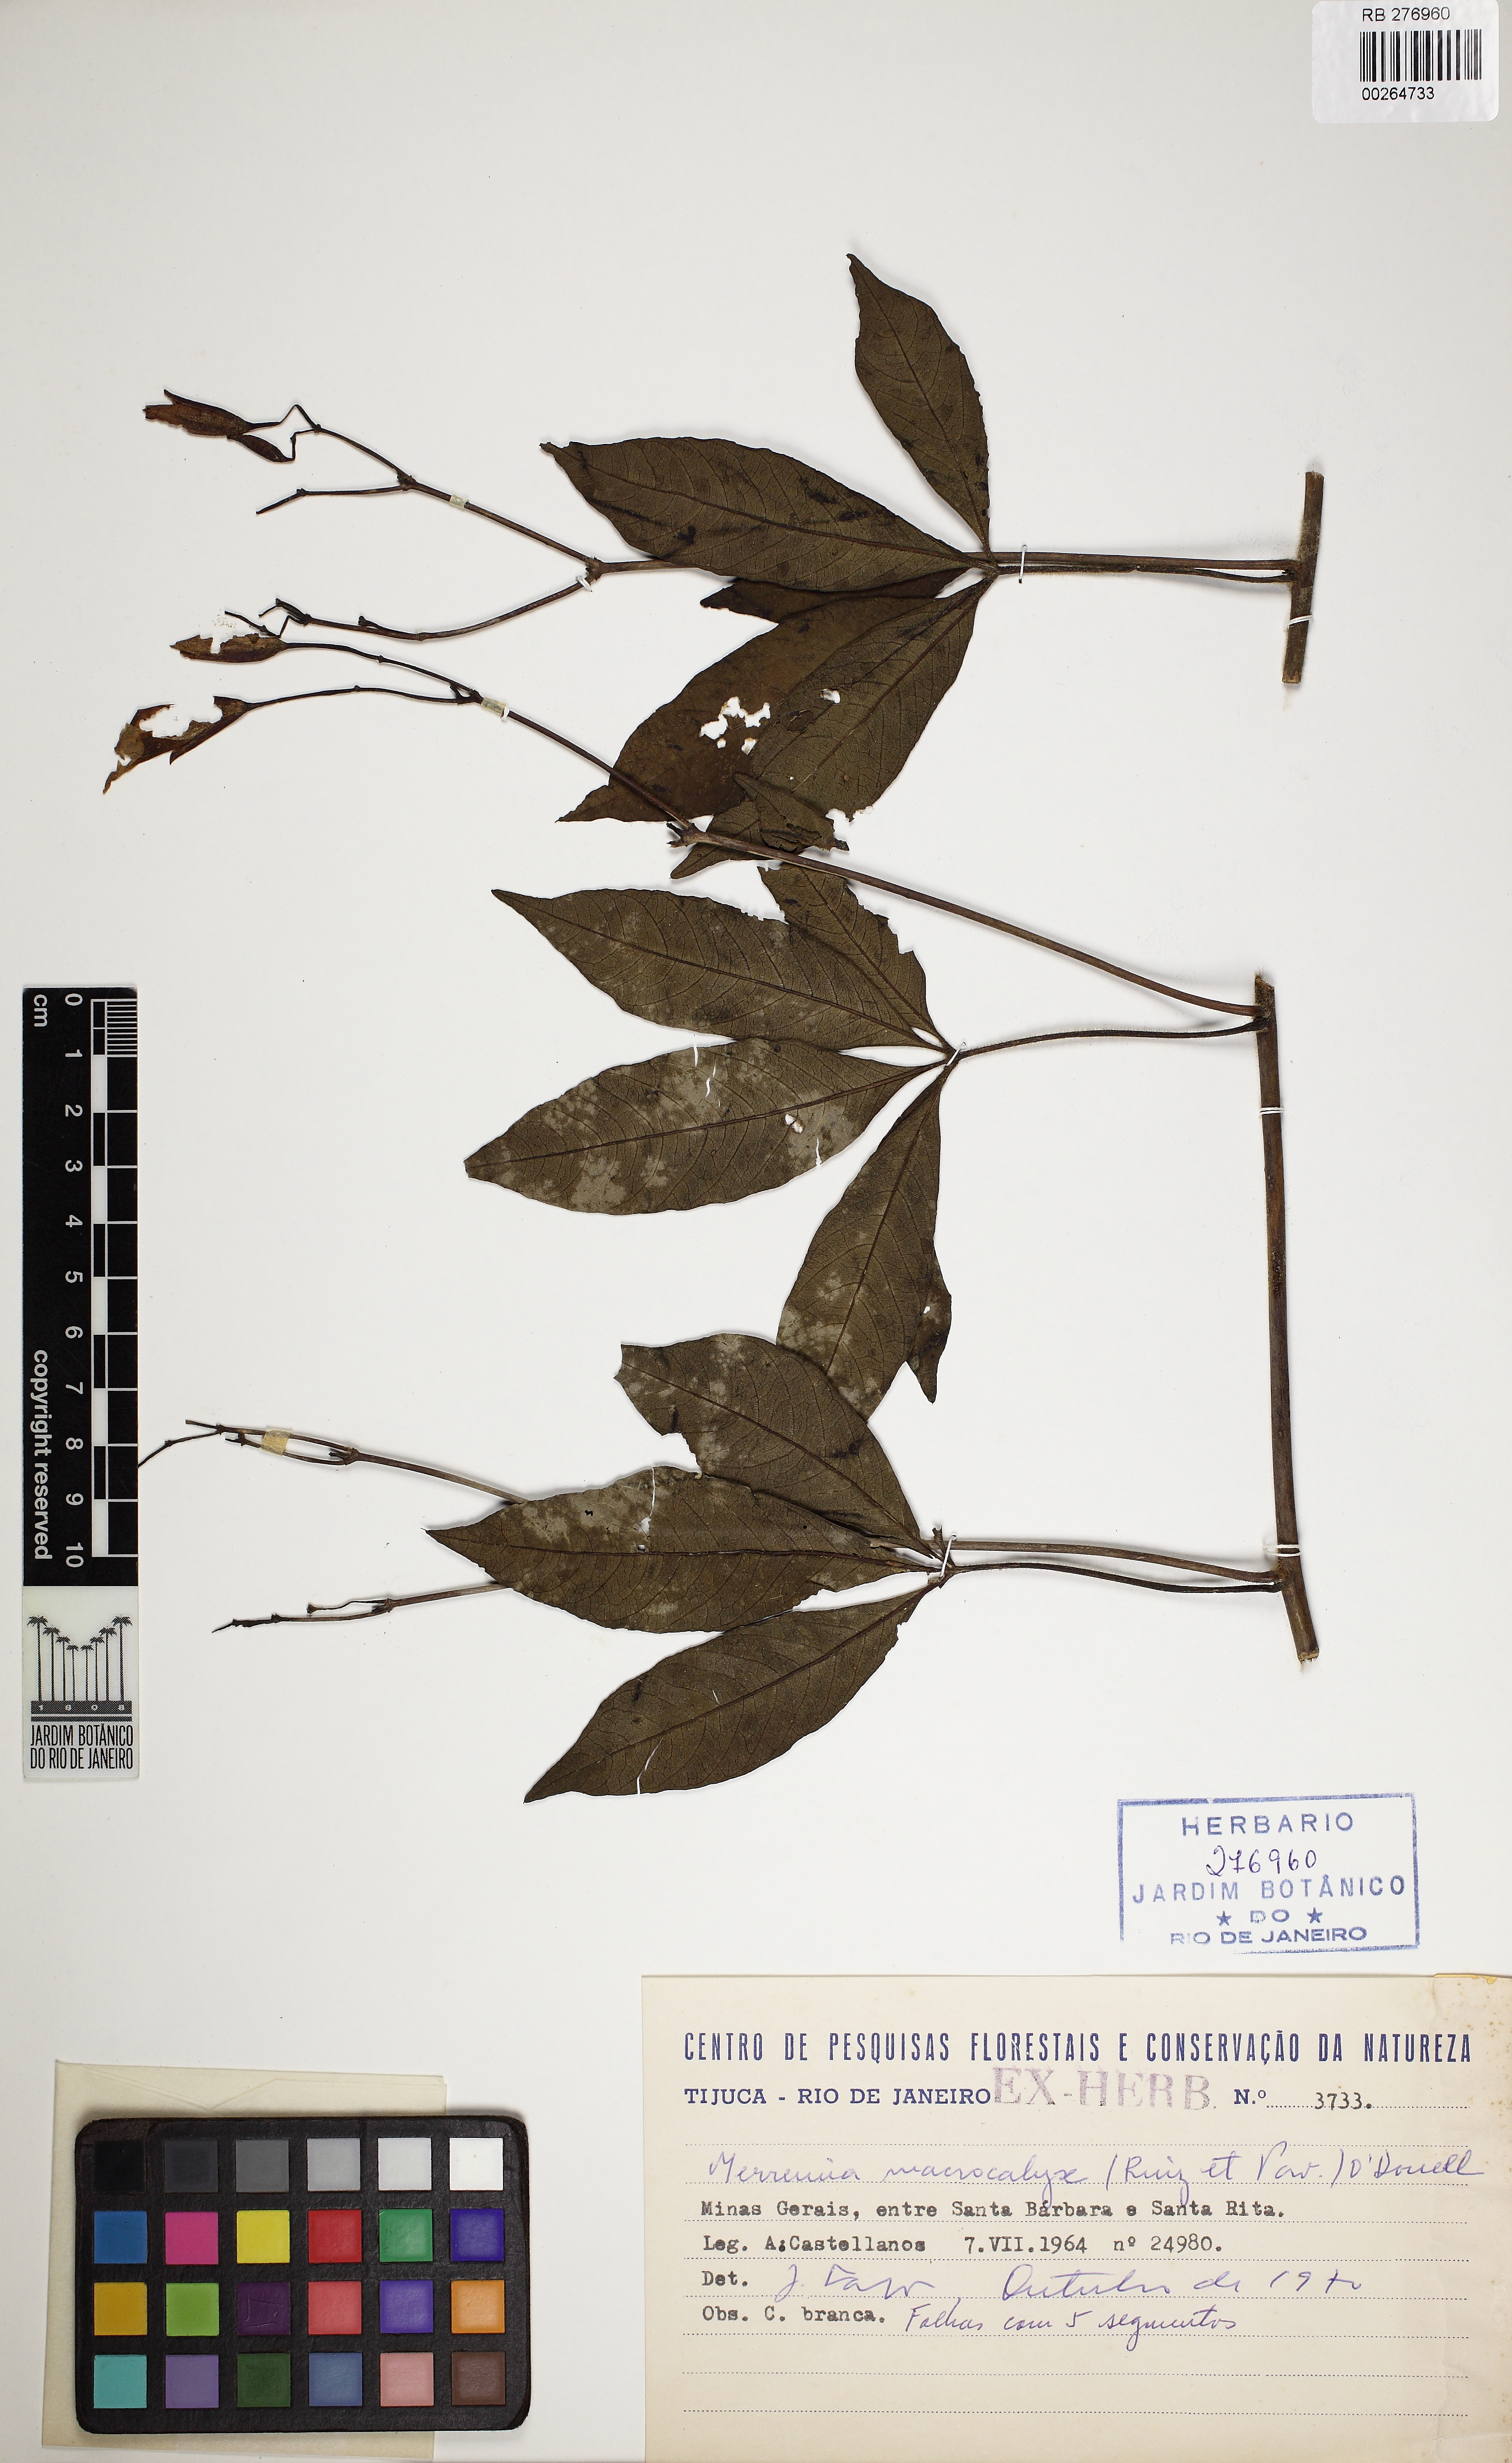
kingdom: Plantae
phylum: Tracheophyta
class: Magnoliopsida
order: Solanales
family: Convolvulaceae
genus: Distimake
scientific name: Distimake macrocalyx
